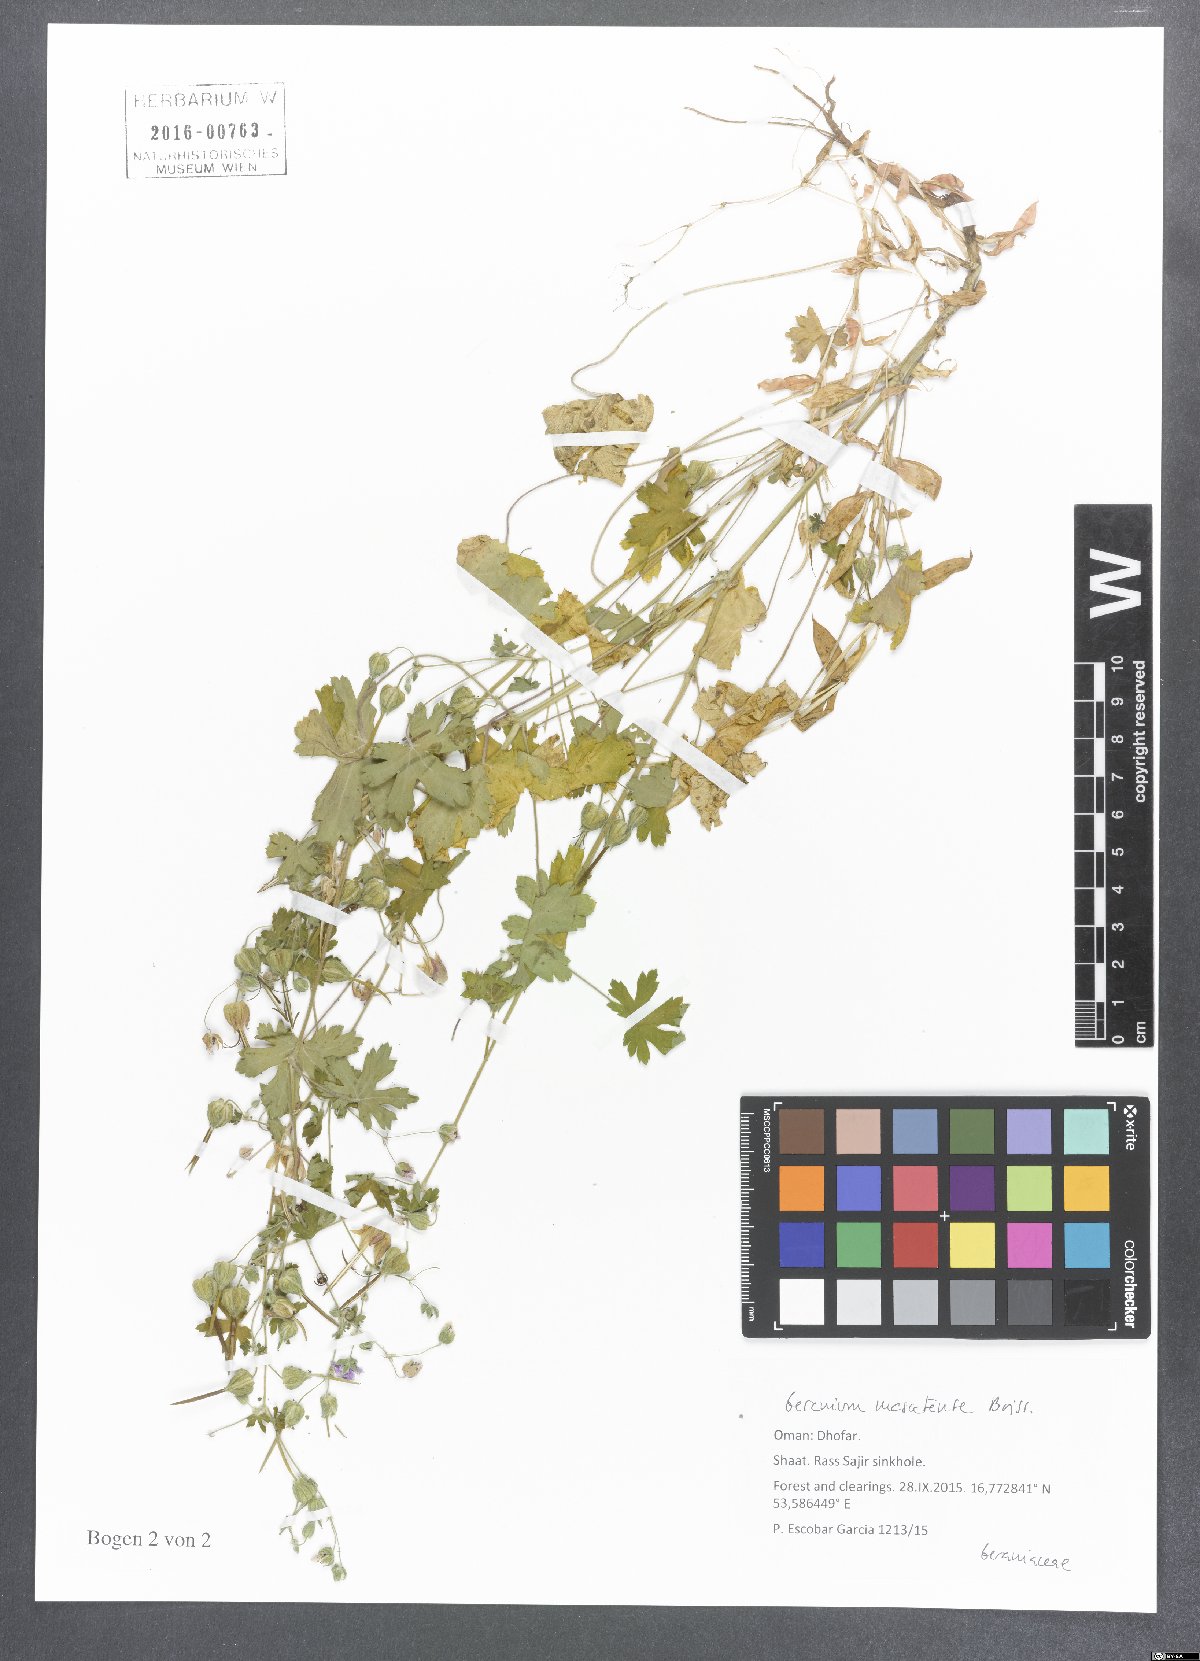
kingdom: Plantae
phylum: Tracheophyta
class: Magnoliopsida
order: Geraniales
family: Geraniaceae
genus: Geranium
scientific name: Geranium mascatense
